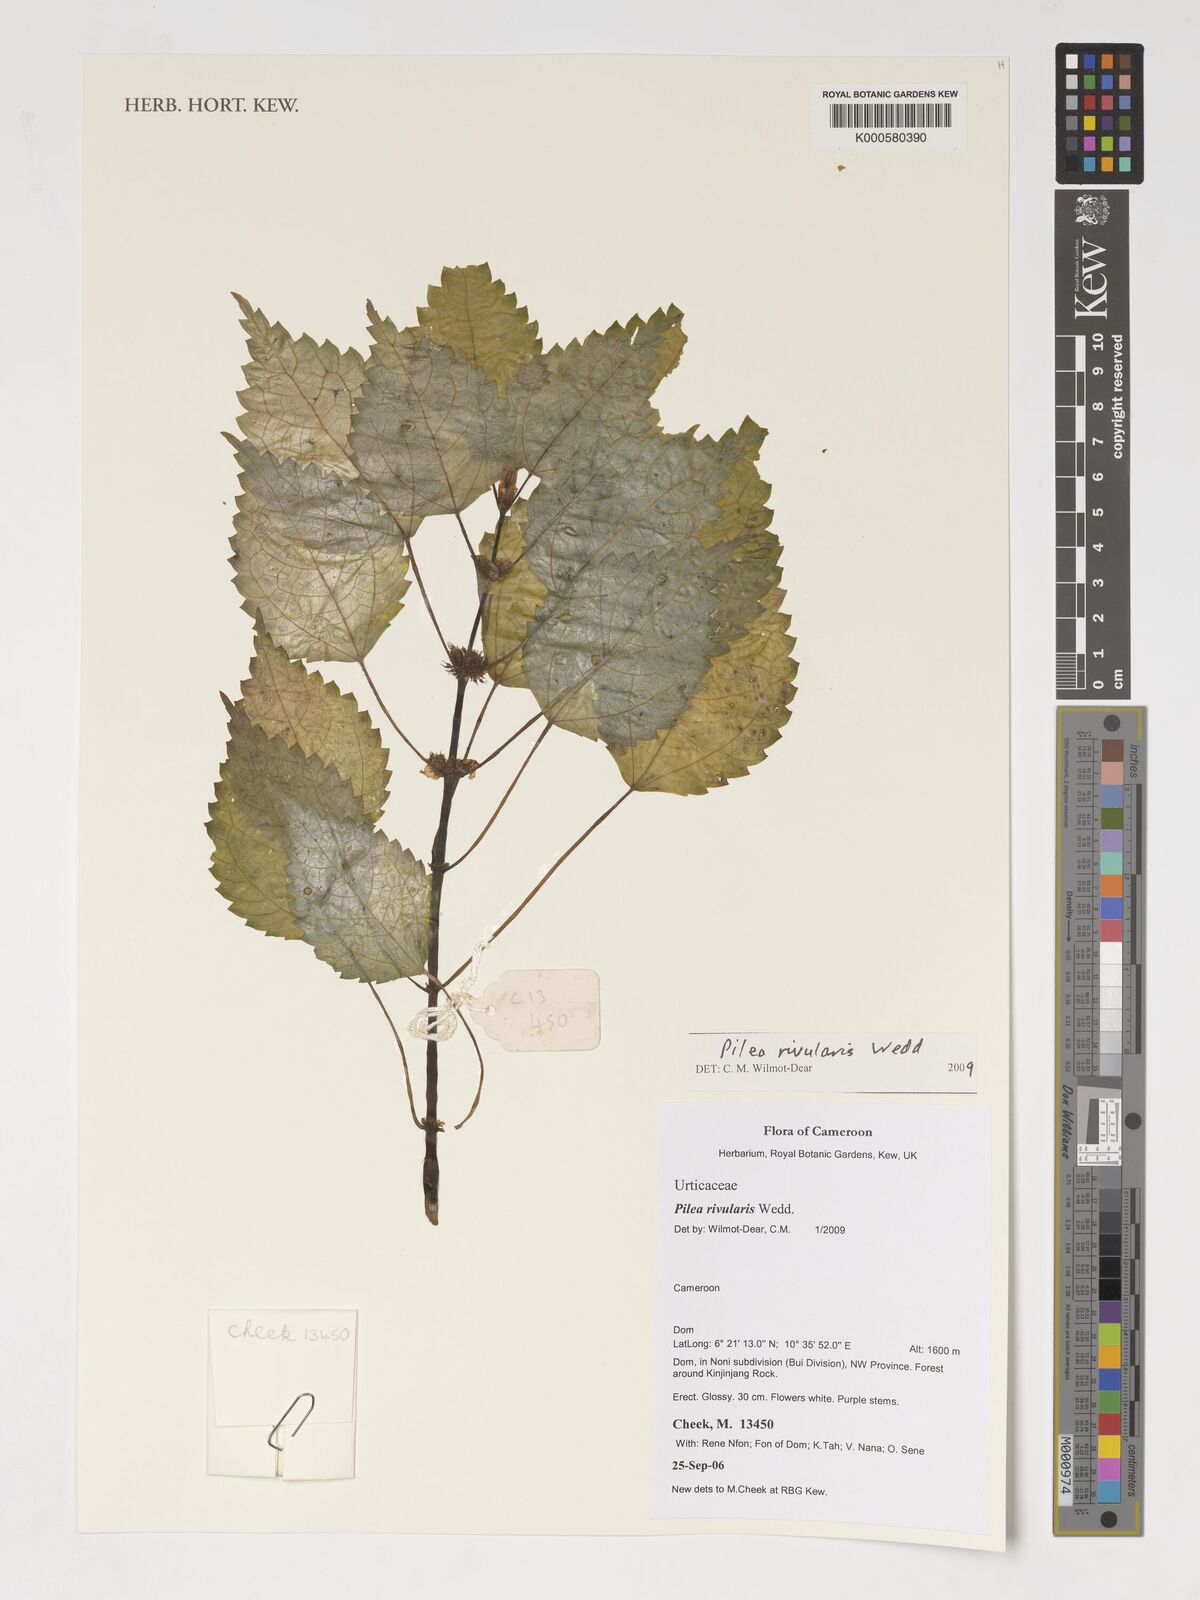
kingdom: Plantae
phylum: Tracheophyta
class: Magnoliopsida
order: Rosales
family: Urticaceae
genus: Pilea
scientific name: Pilea rivularis
